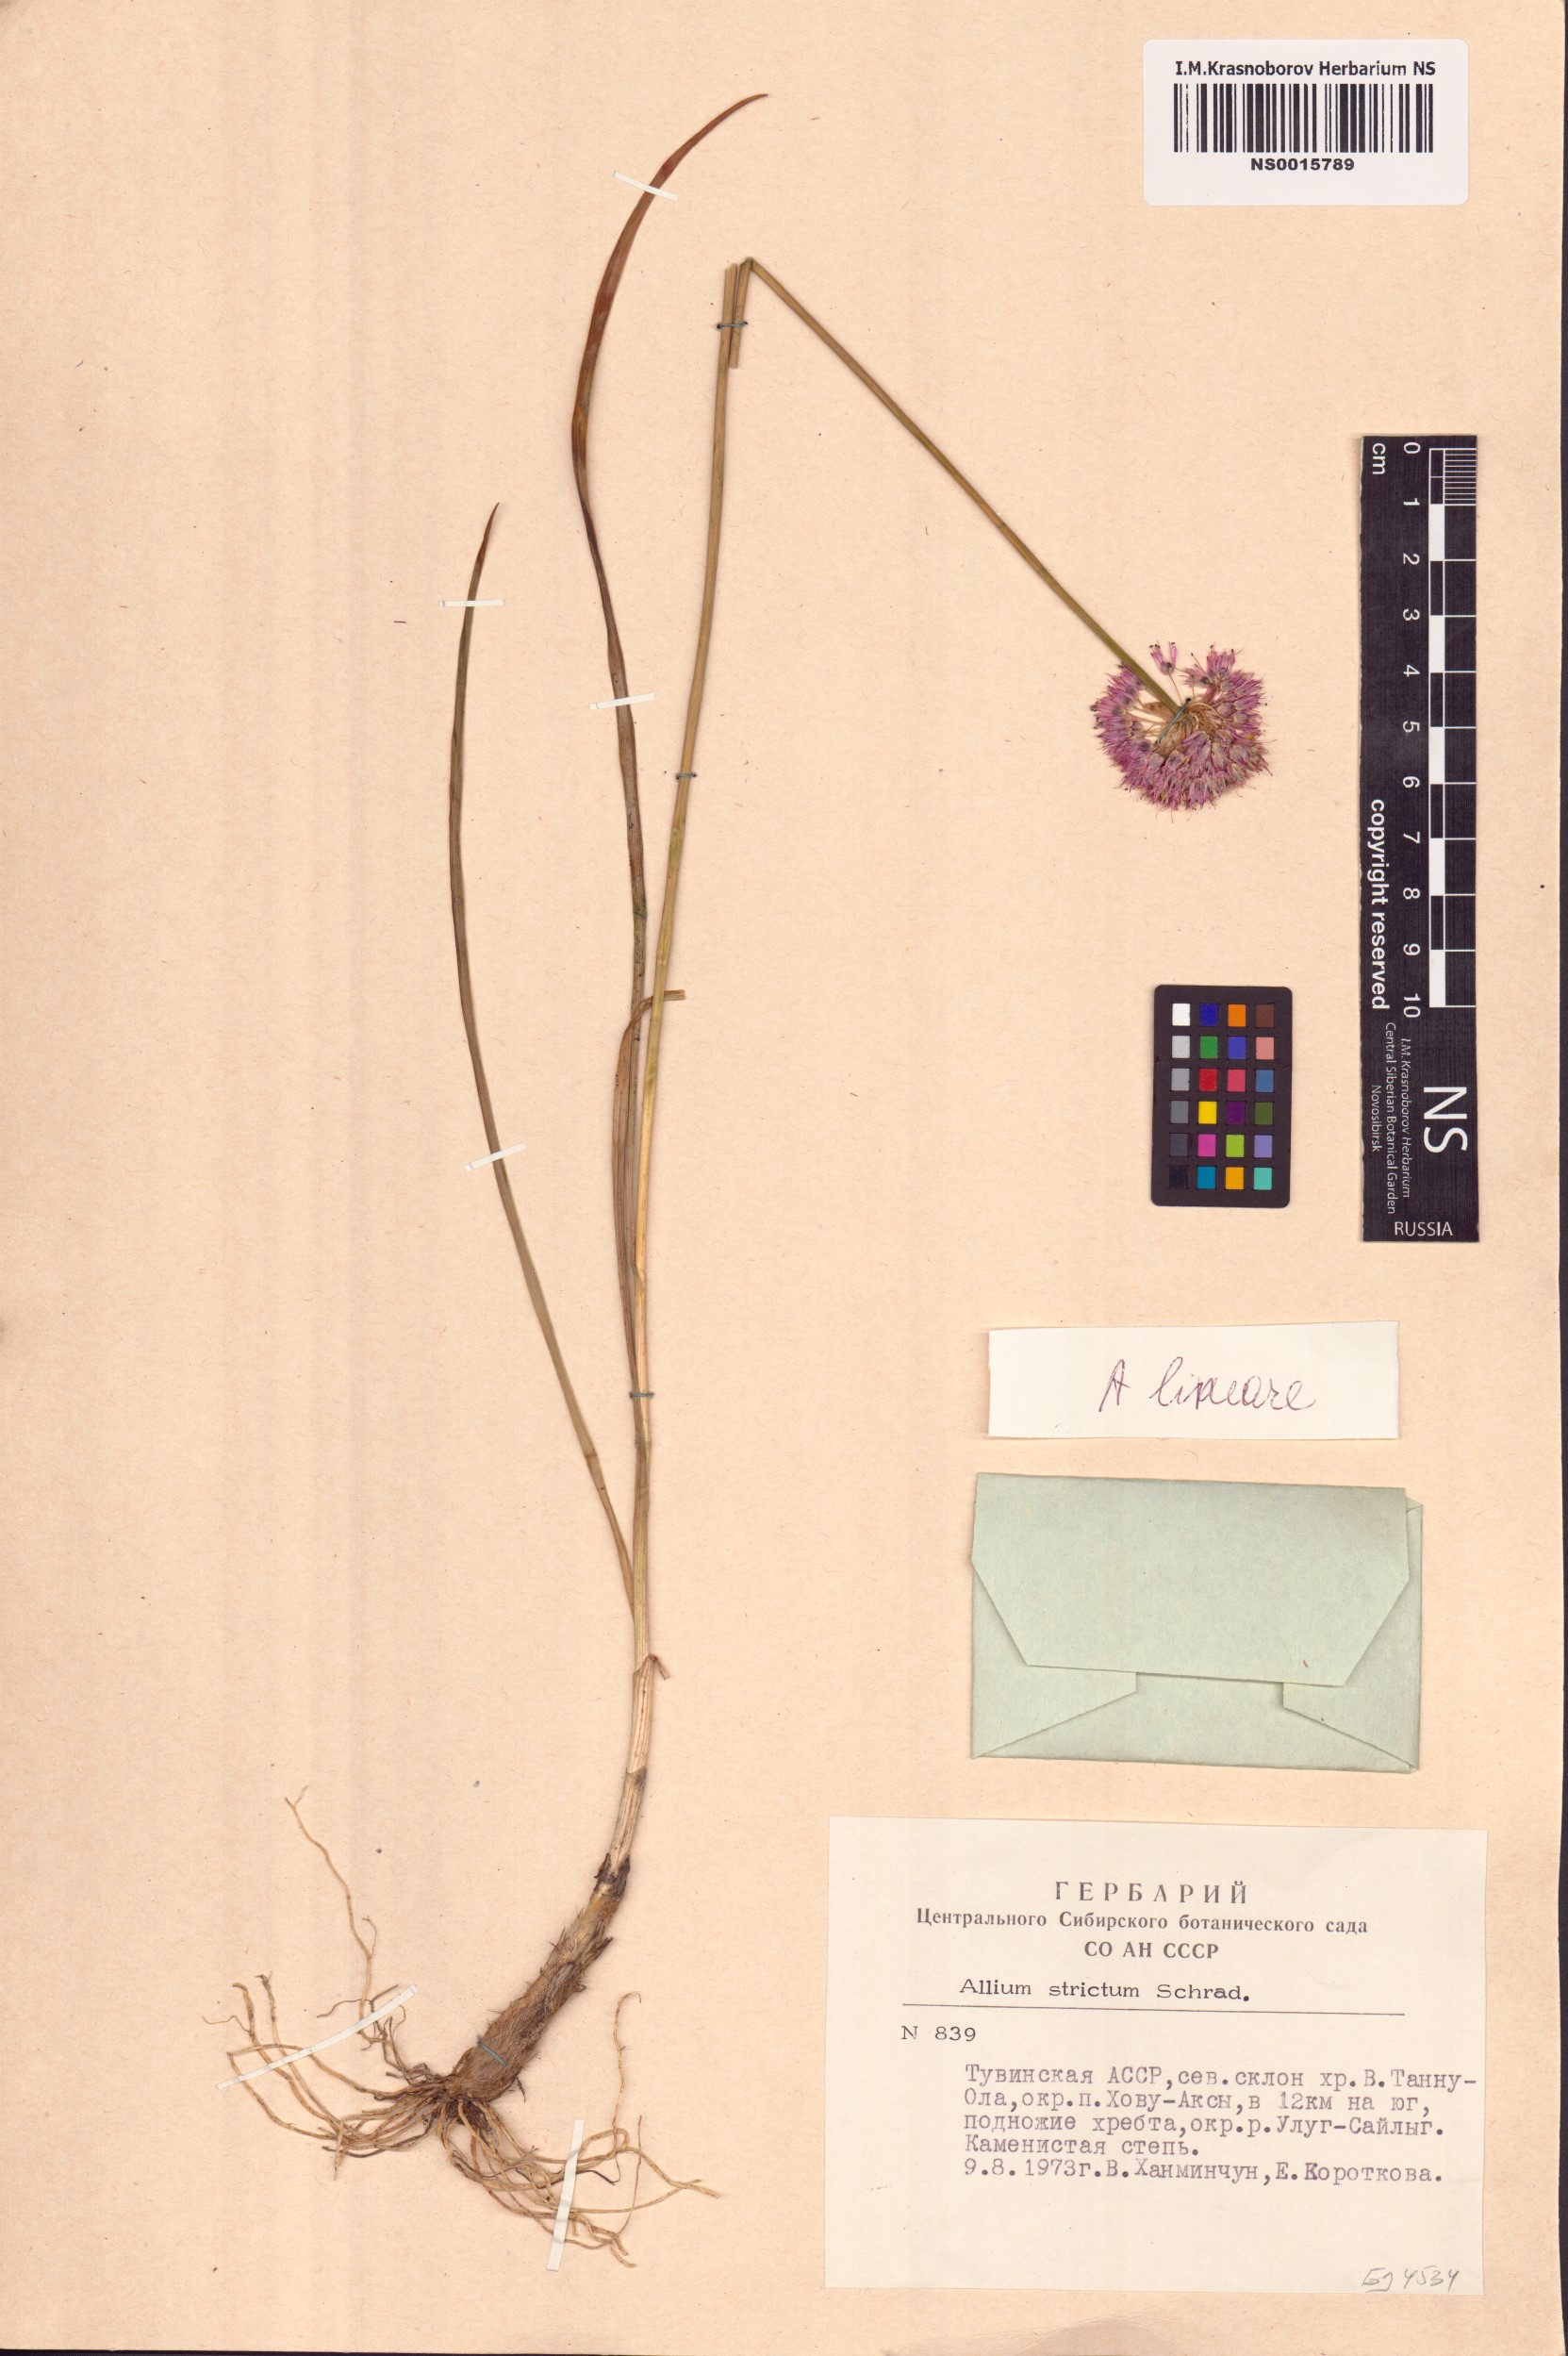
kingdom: Plantae
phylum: Tracheophyta
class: Liliopsida
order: Asparagales
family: Amaryllidaceae
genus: Allium
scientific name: Allium strictum
